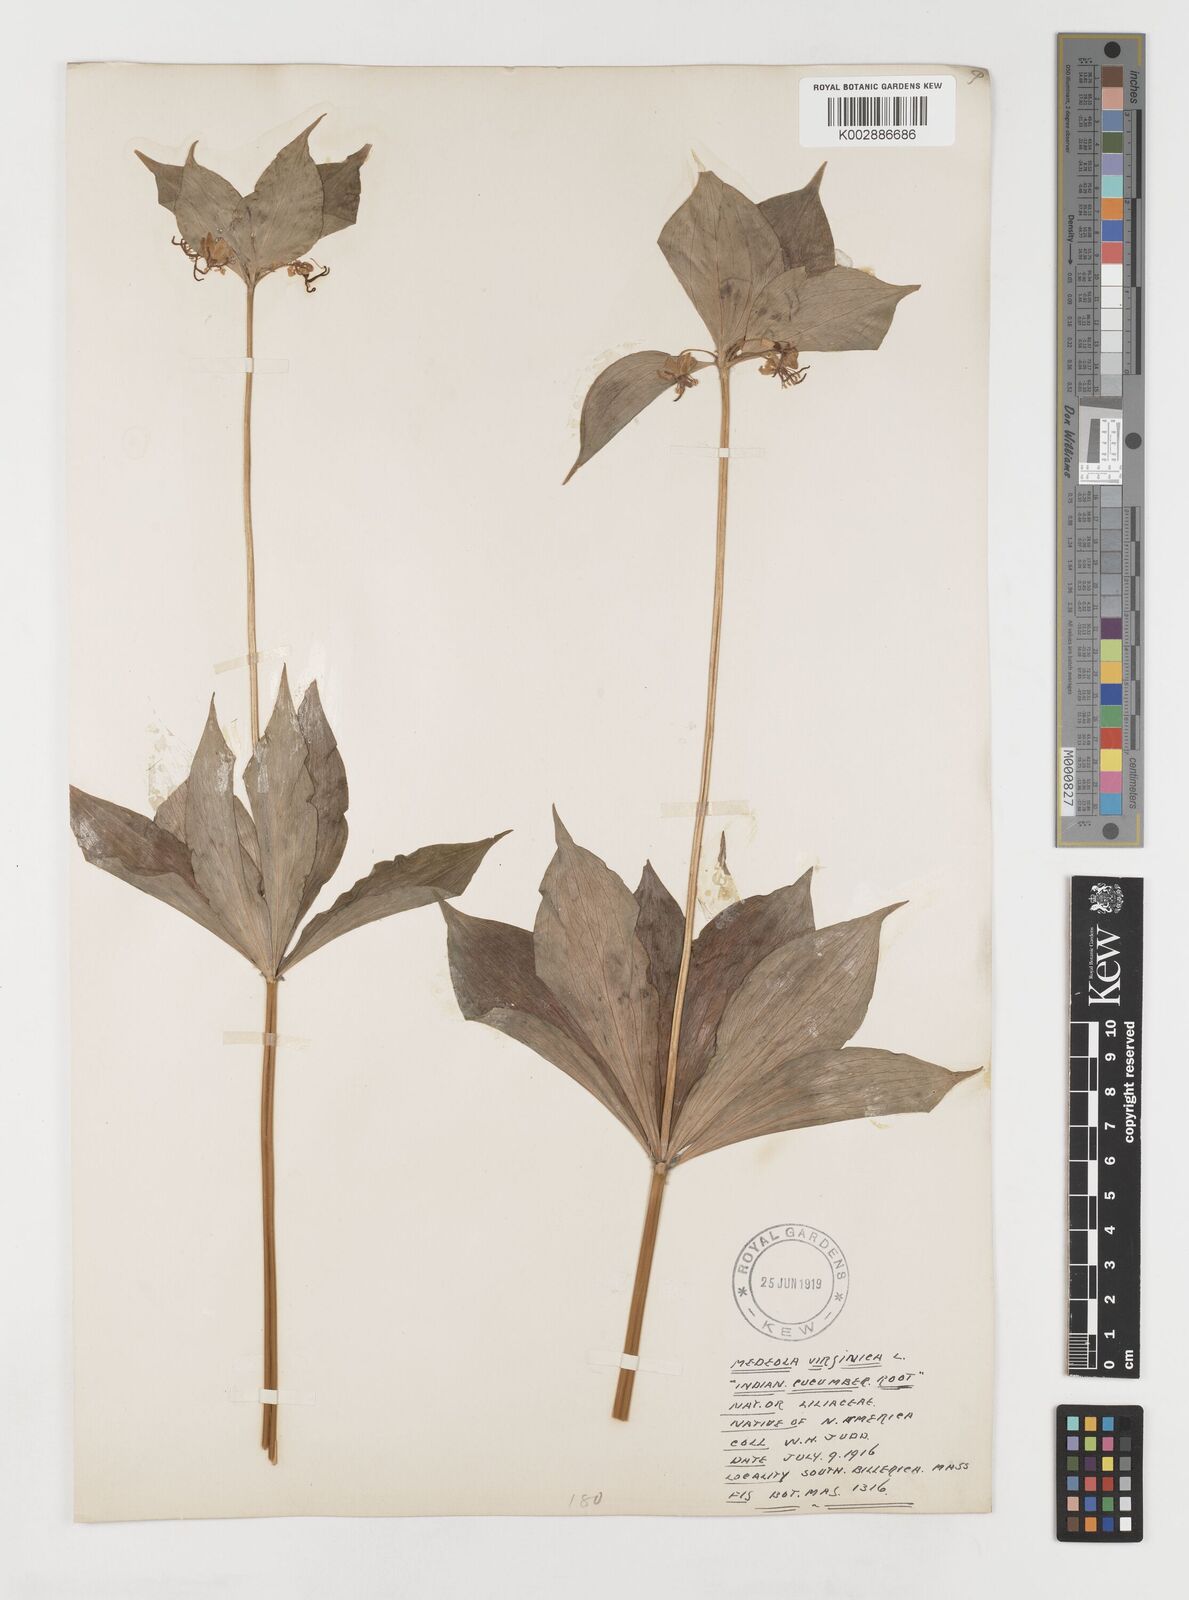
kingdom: Plantae
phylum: Tracheophyta
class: Liliopsida
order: Liliales
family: Liliaceae
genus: Medeola
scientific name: Medeola virginiana
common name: Indian cucumber-root
